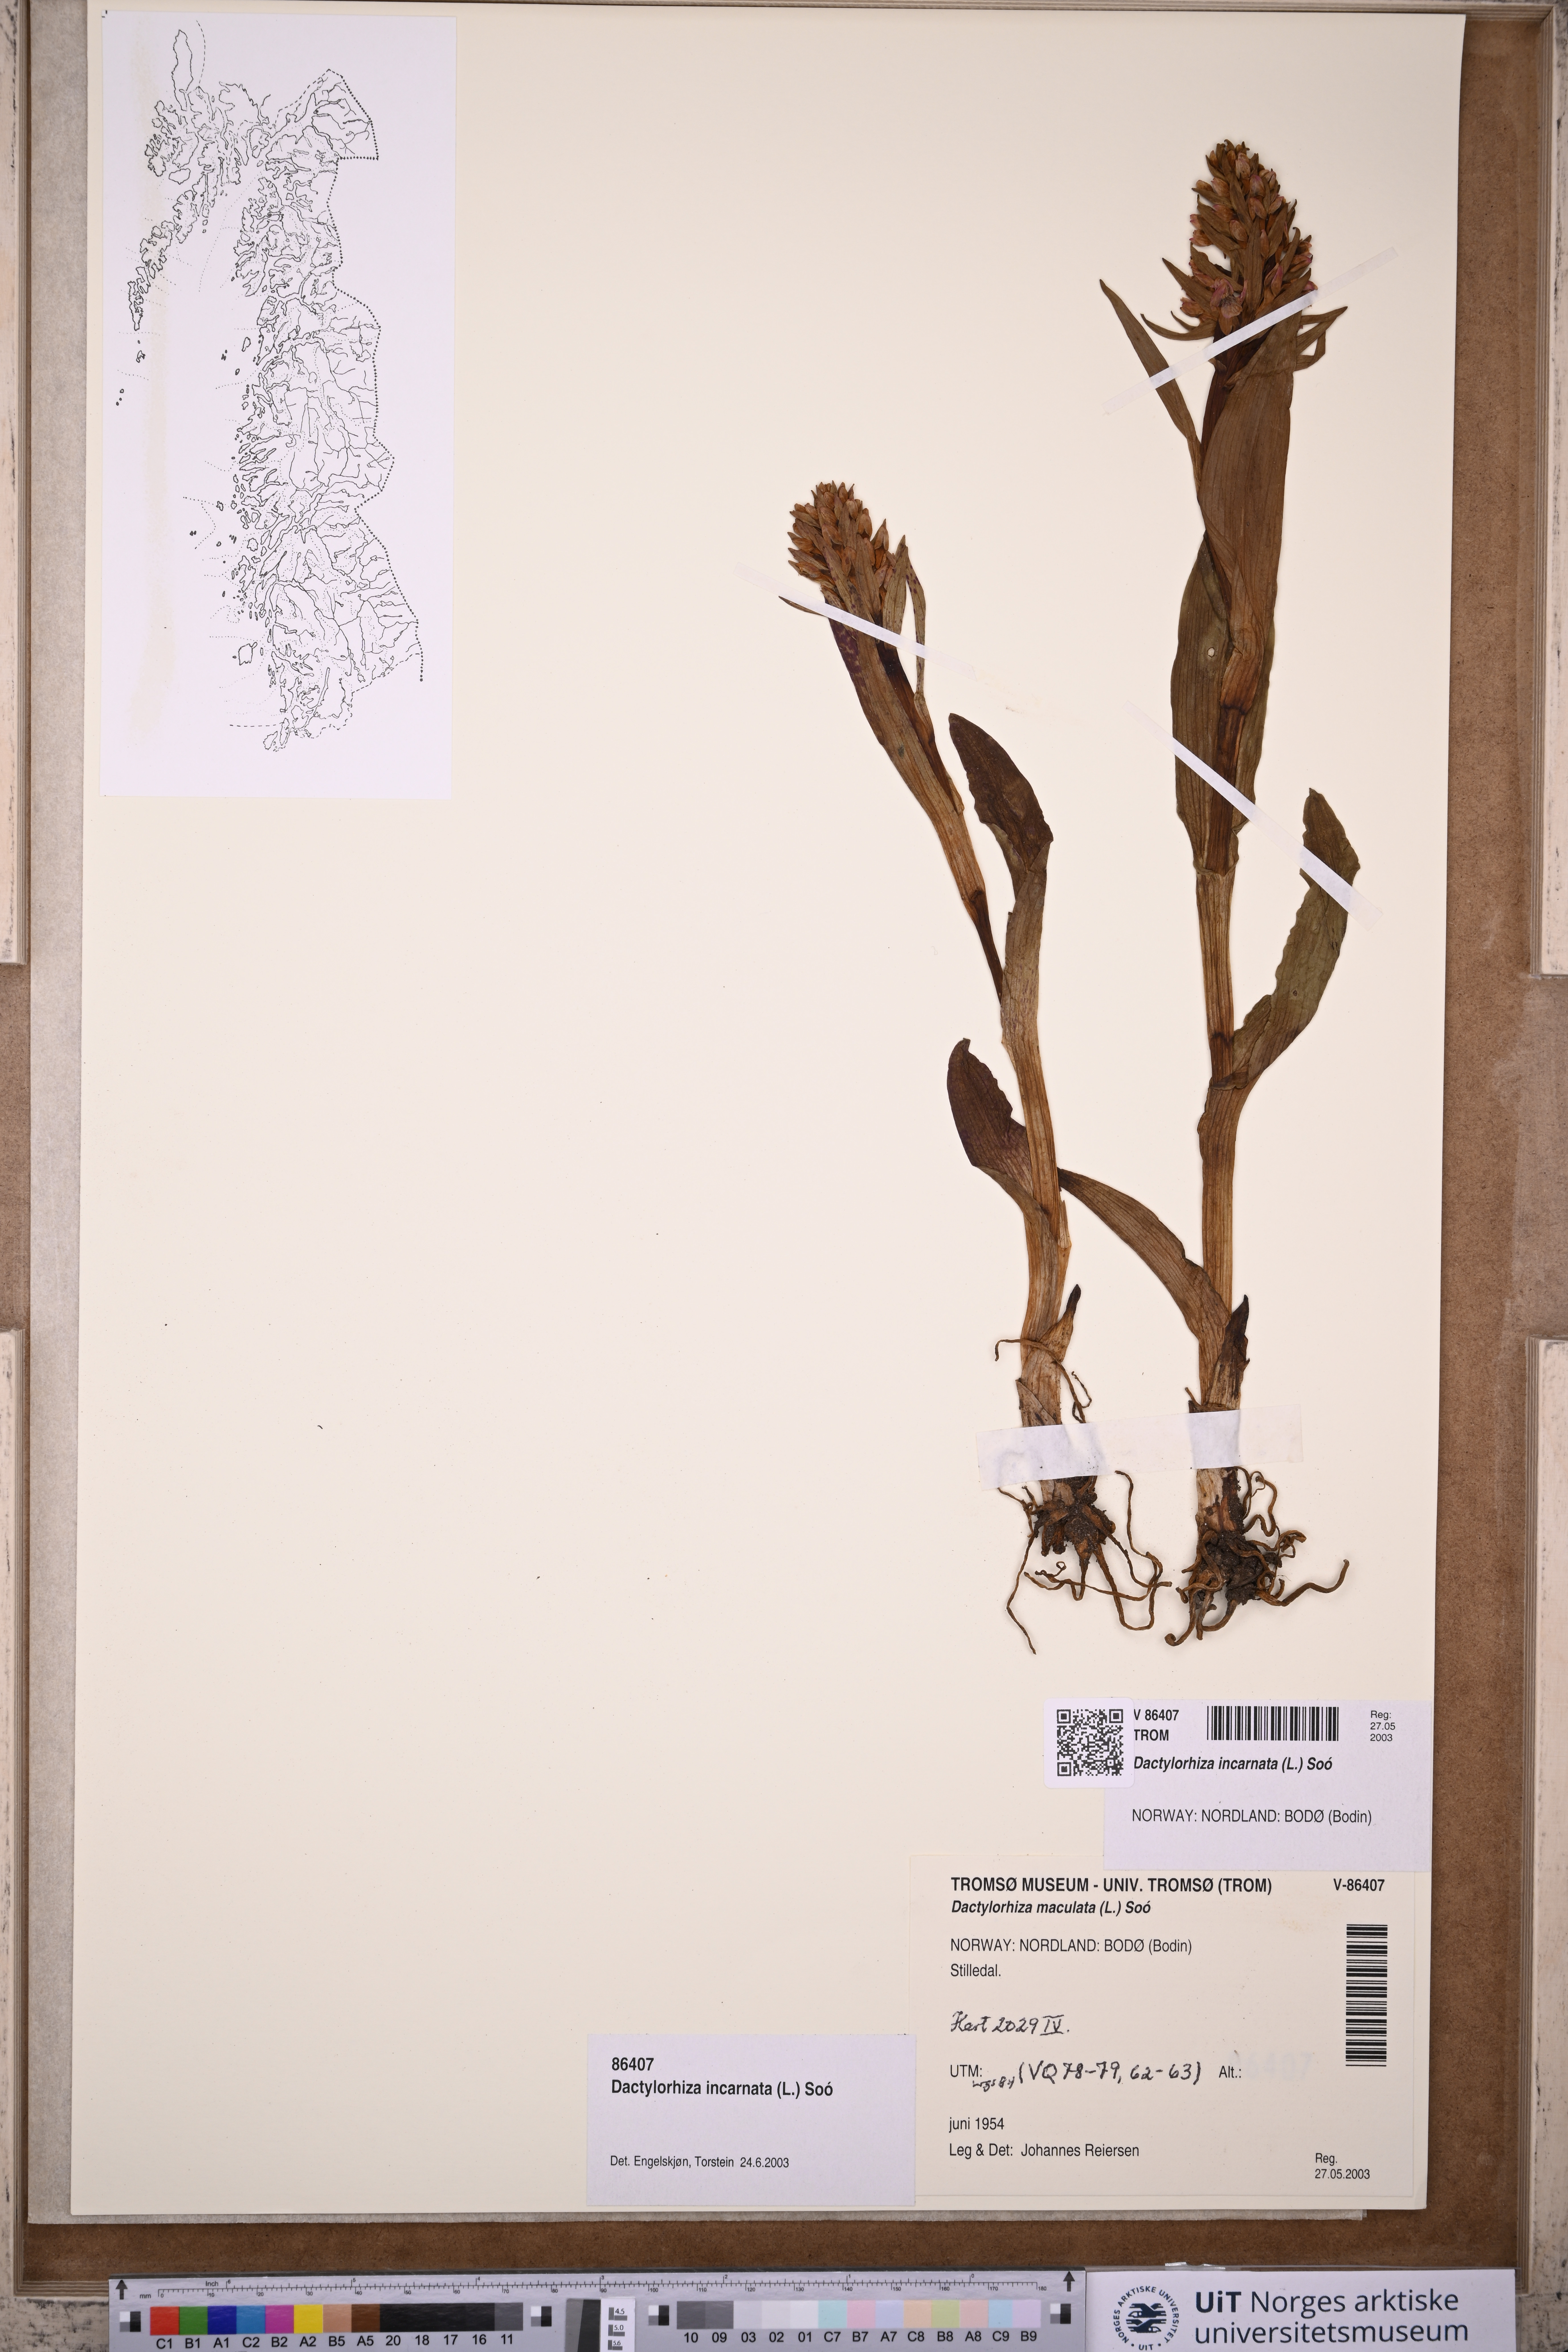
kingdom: Plantae
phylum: Tracheophyta
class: Liliopsida
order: Asparagales
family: Orchidaceae
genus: Dactylorhiza
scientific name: Dactylorhiza incarnata
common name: Early marsh-orchid
